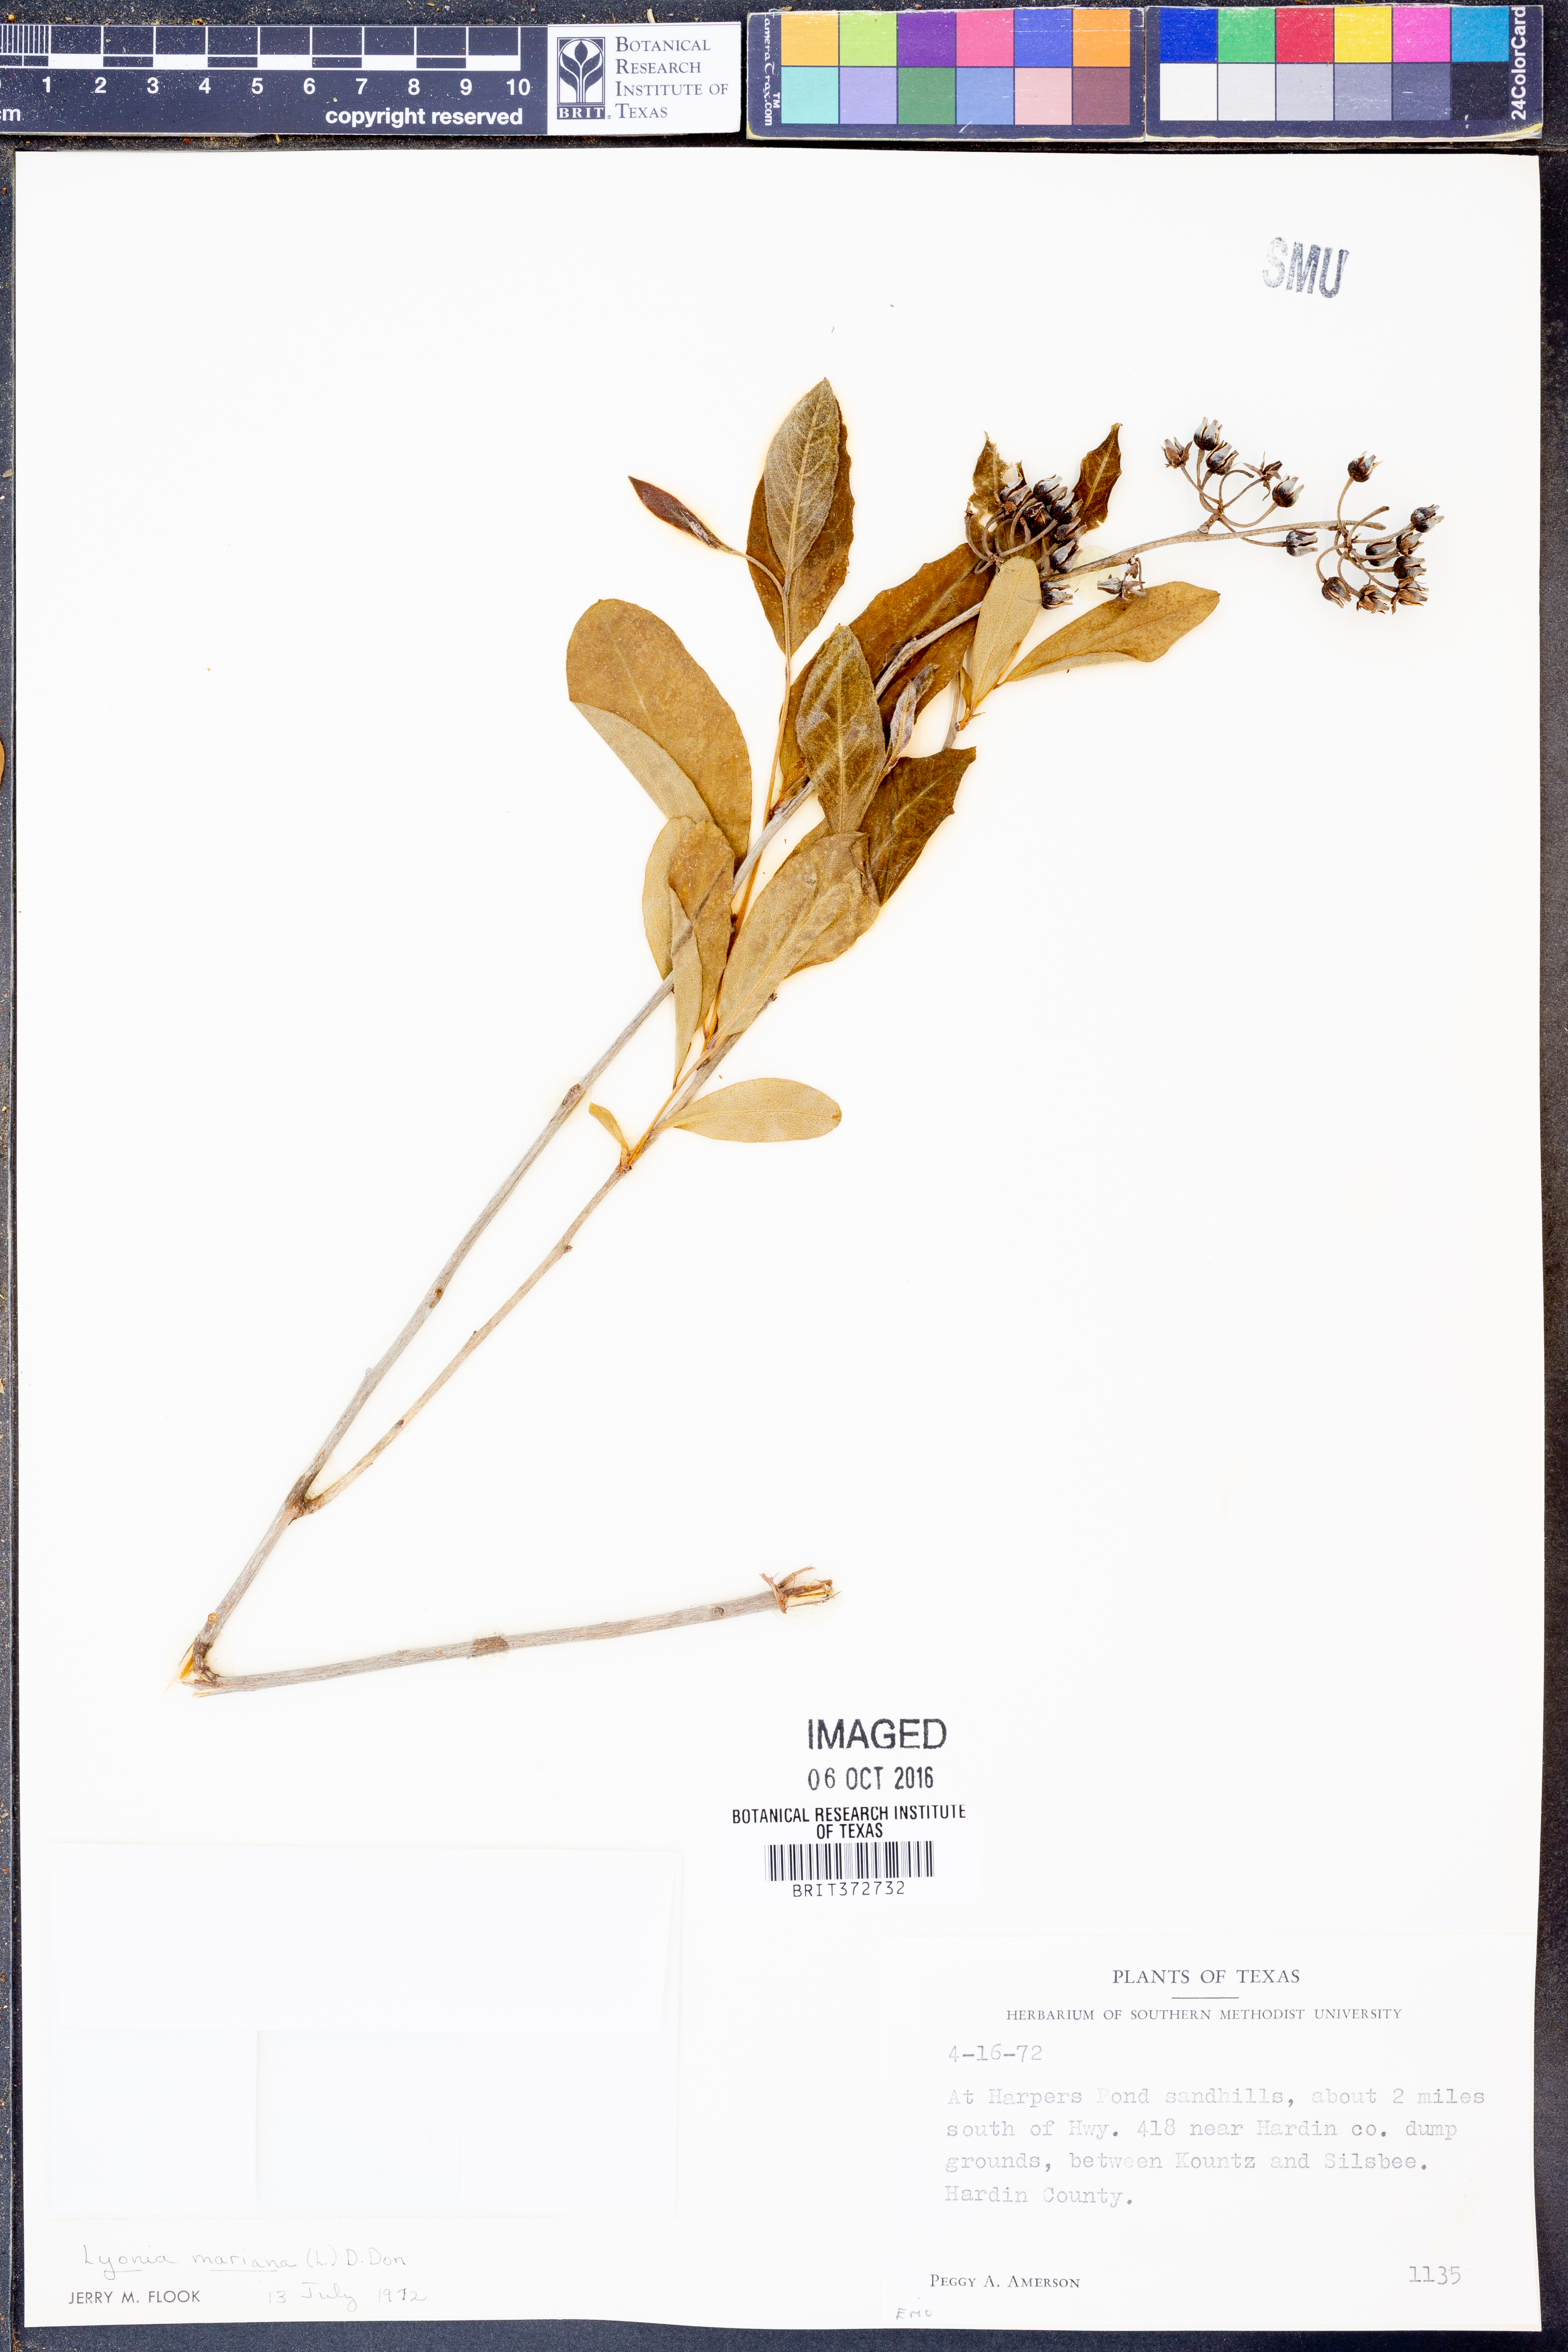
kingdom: Plantae
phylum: Tracheophyta
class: Magnoliopsida
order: Ericales
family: Ericaceae
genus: Lyonia
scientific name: Lyonia mariana
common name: Staggerbush
